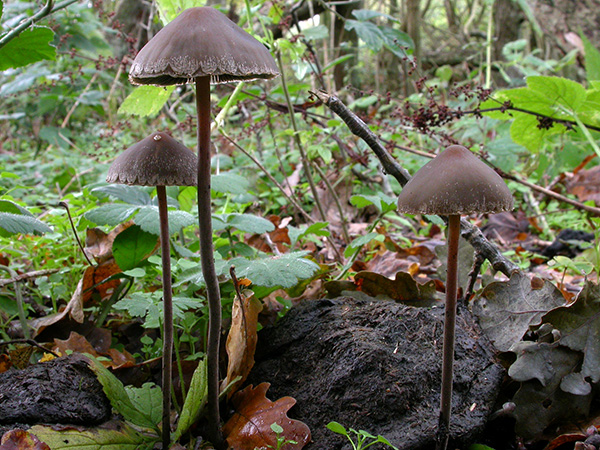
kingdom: Fungi
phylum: Basidiomycota
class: Agaricomycetes
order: Agaricales
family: Bolbitiaceae
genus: Panaeolus
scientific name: Panaeolus papilionaceus
